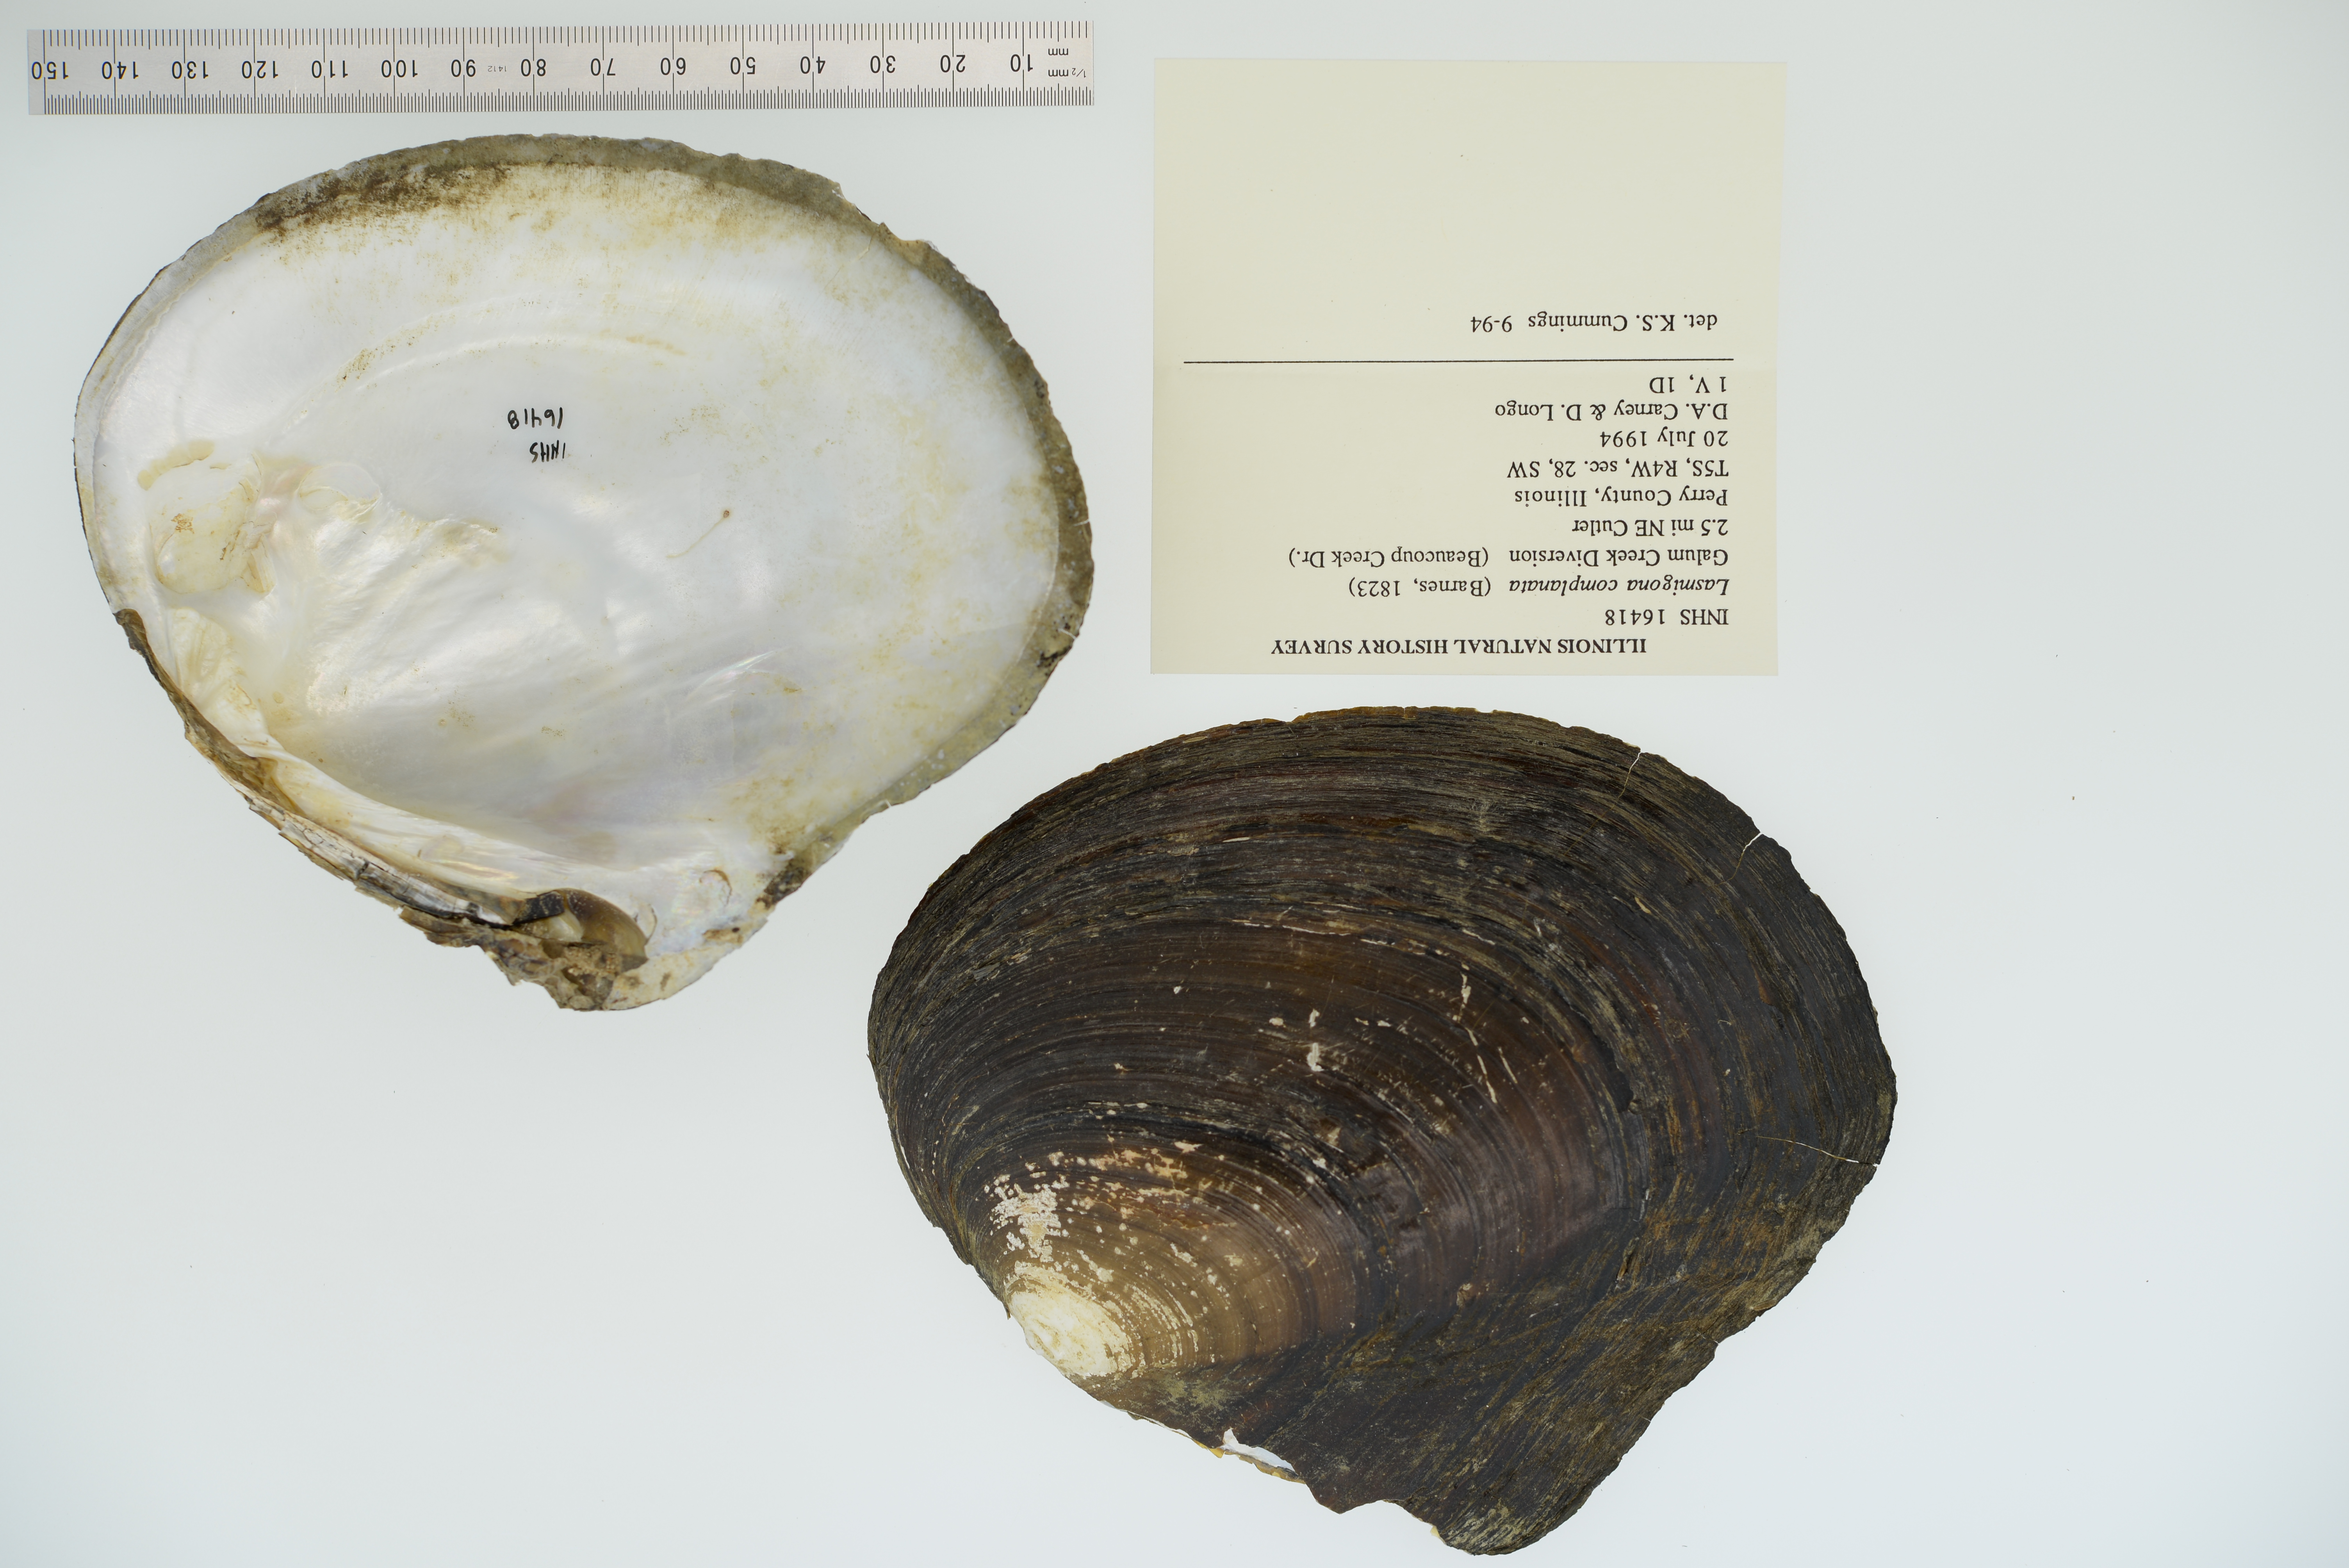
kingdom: Animalia
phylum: Mollusca
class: Bivalvia
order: Unionida
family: Unionidae
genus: Lasmigona
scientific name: Lasmigona complanata
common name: White heelsplitter
